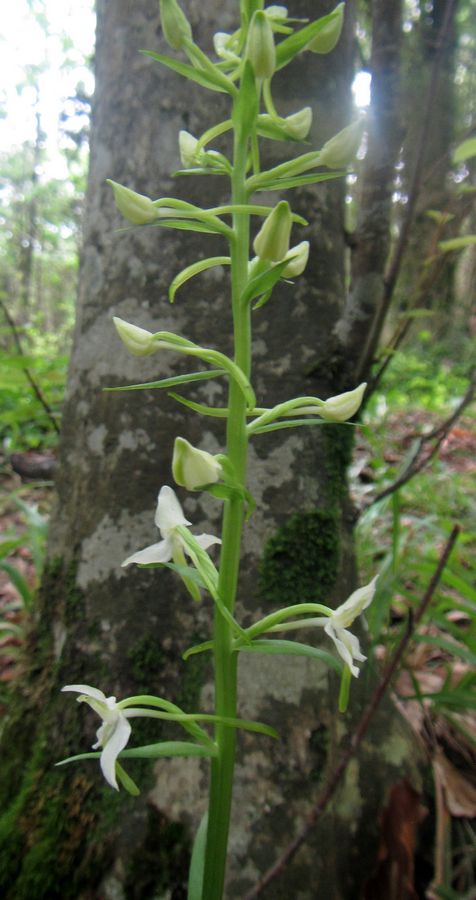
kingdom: Plantae
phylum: Tracheophyta
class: Liliopsida
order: Asparagales
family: Orchidaceae
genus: Platanthera
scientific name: Platanthera bifolia
